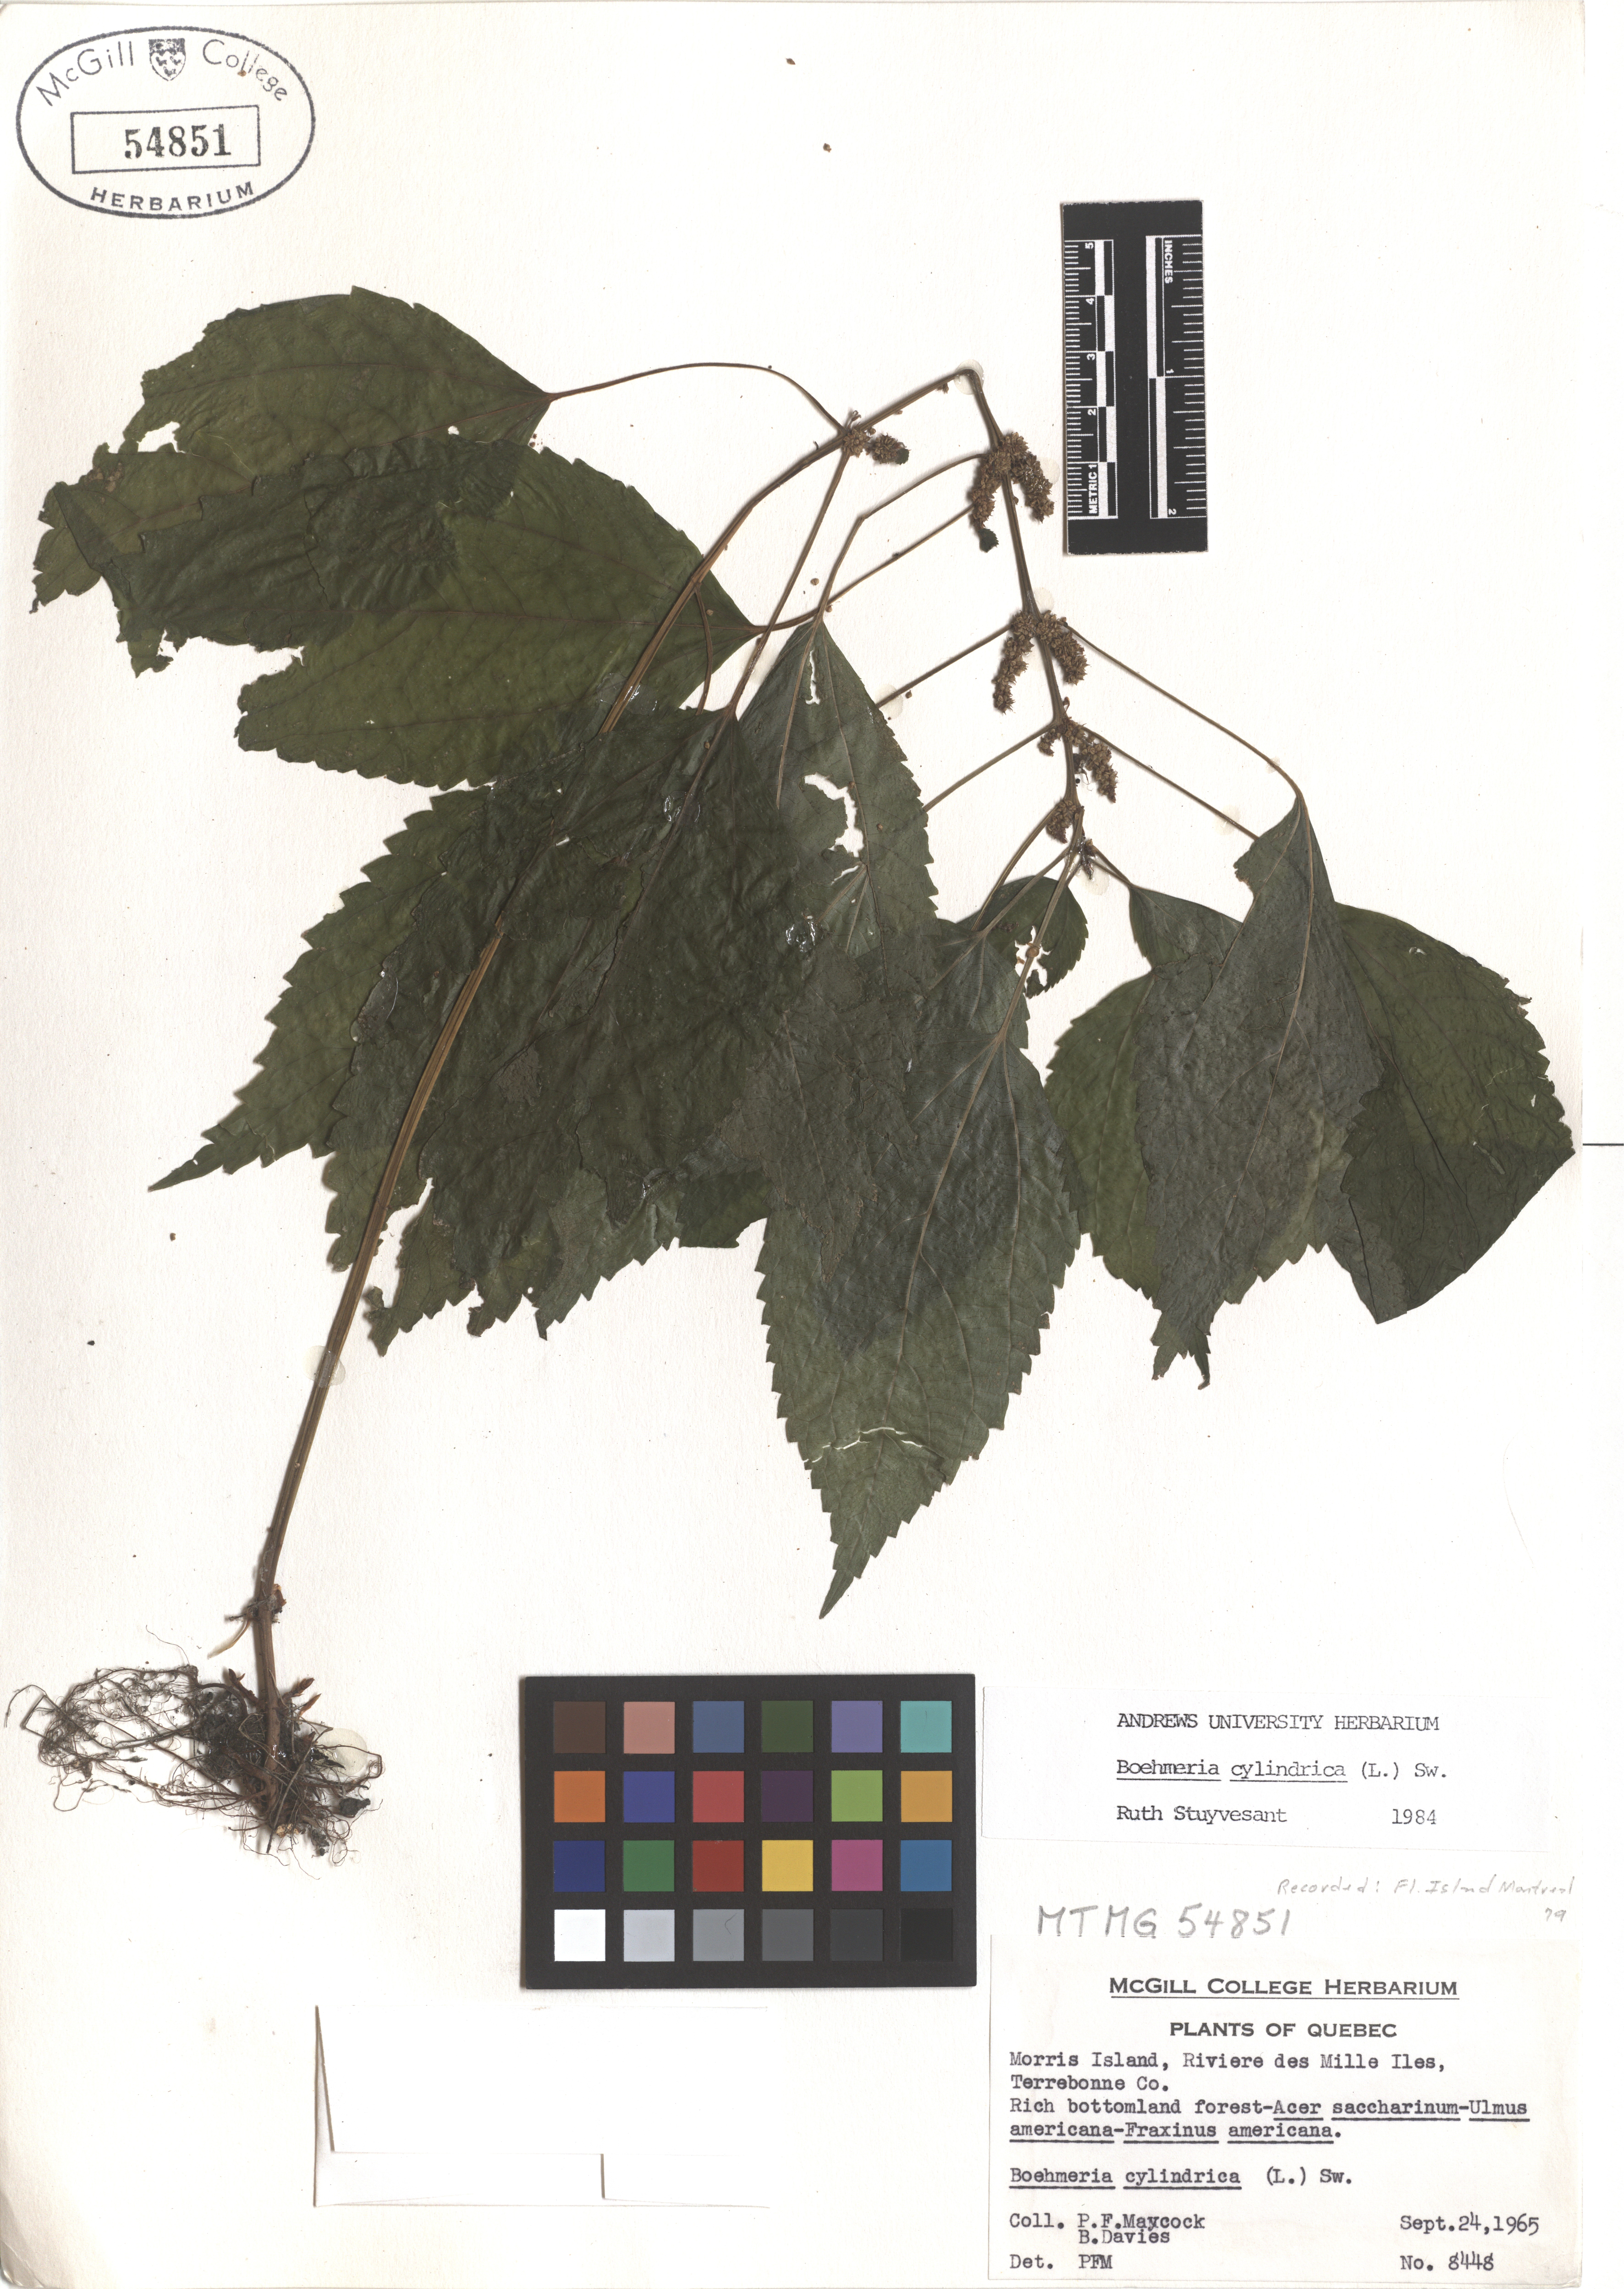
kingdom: Plantae
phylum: Tracheophyta
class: Magnoliopsida
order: Rosales
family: Urticaceae
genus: Boehmeria
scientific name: Boehmeria cylindrica
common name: Bog-hemp
